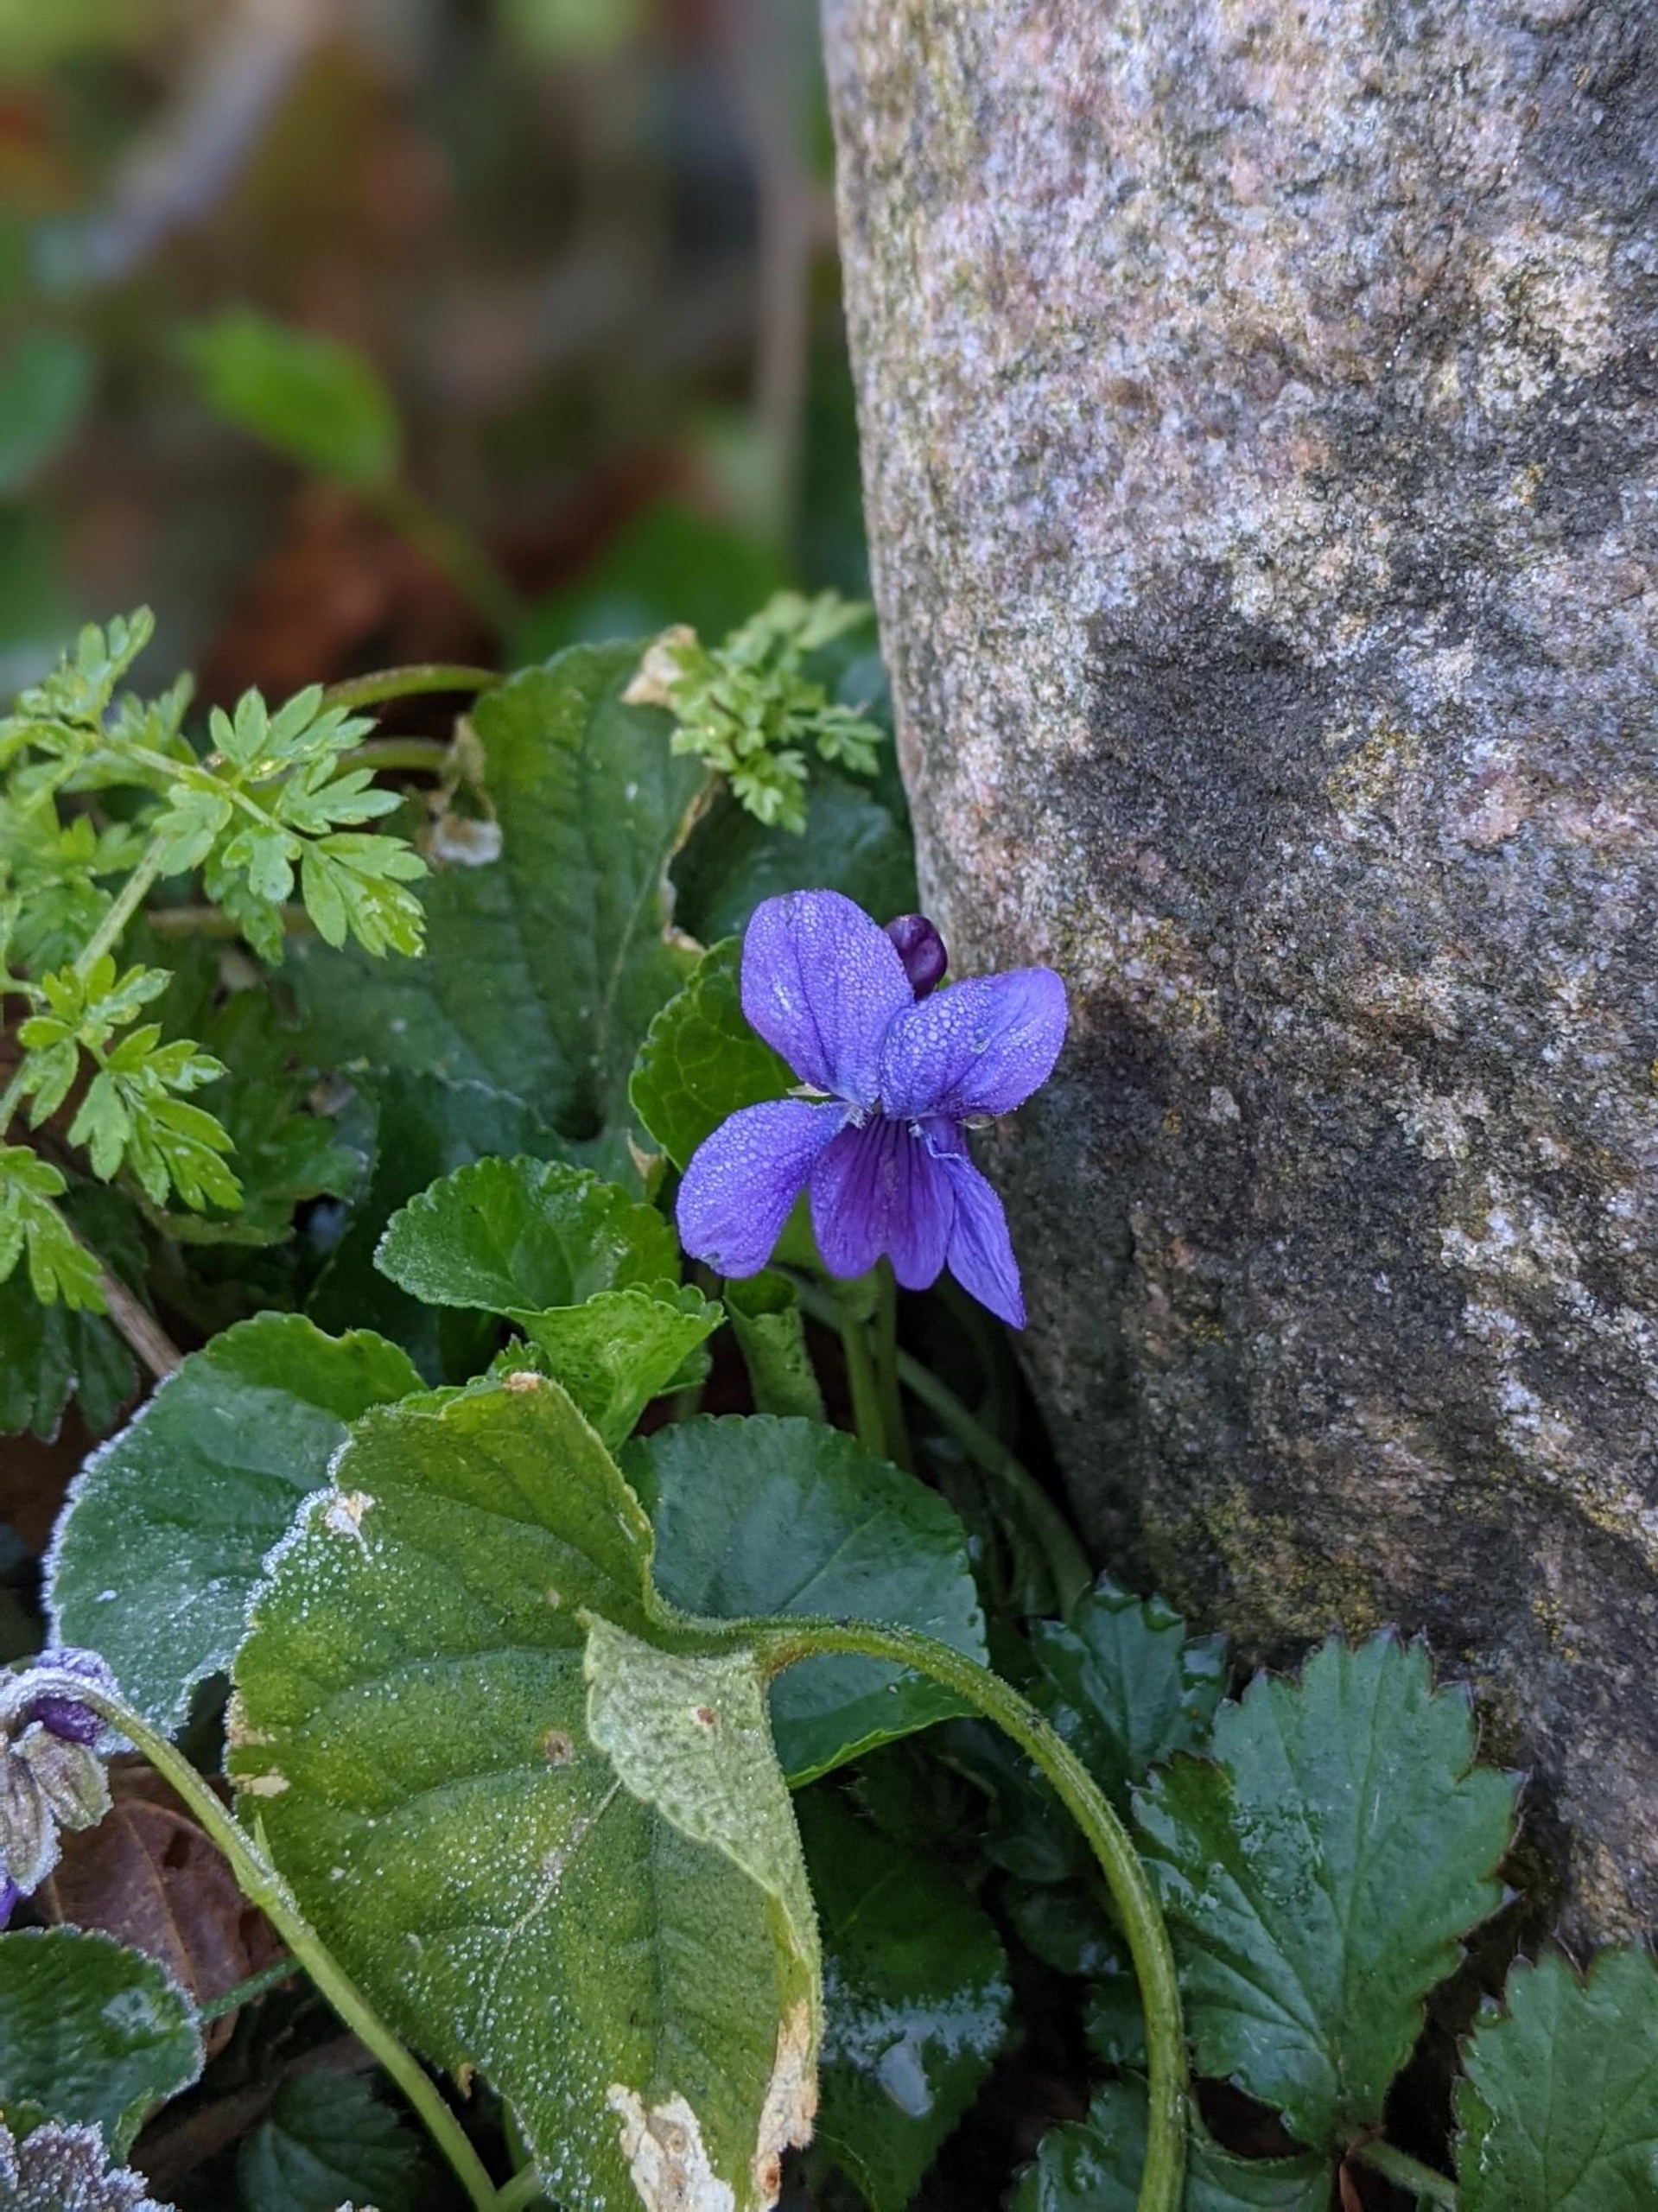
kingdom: Plantae
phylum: Tracheophyta
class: Magnoliopsida
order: Malpighiales
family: Violaceae
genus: Viola
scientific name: Viola odorata
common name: Marts-viol
